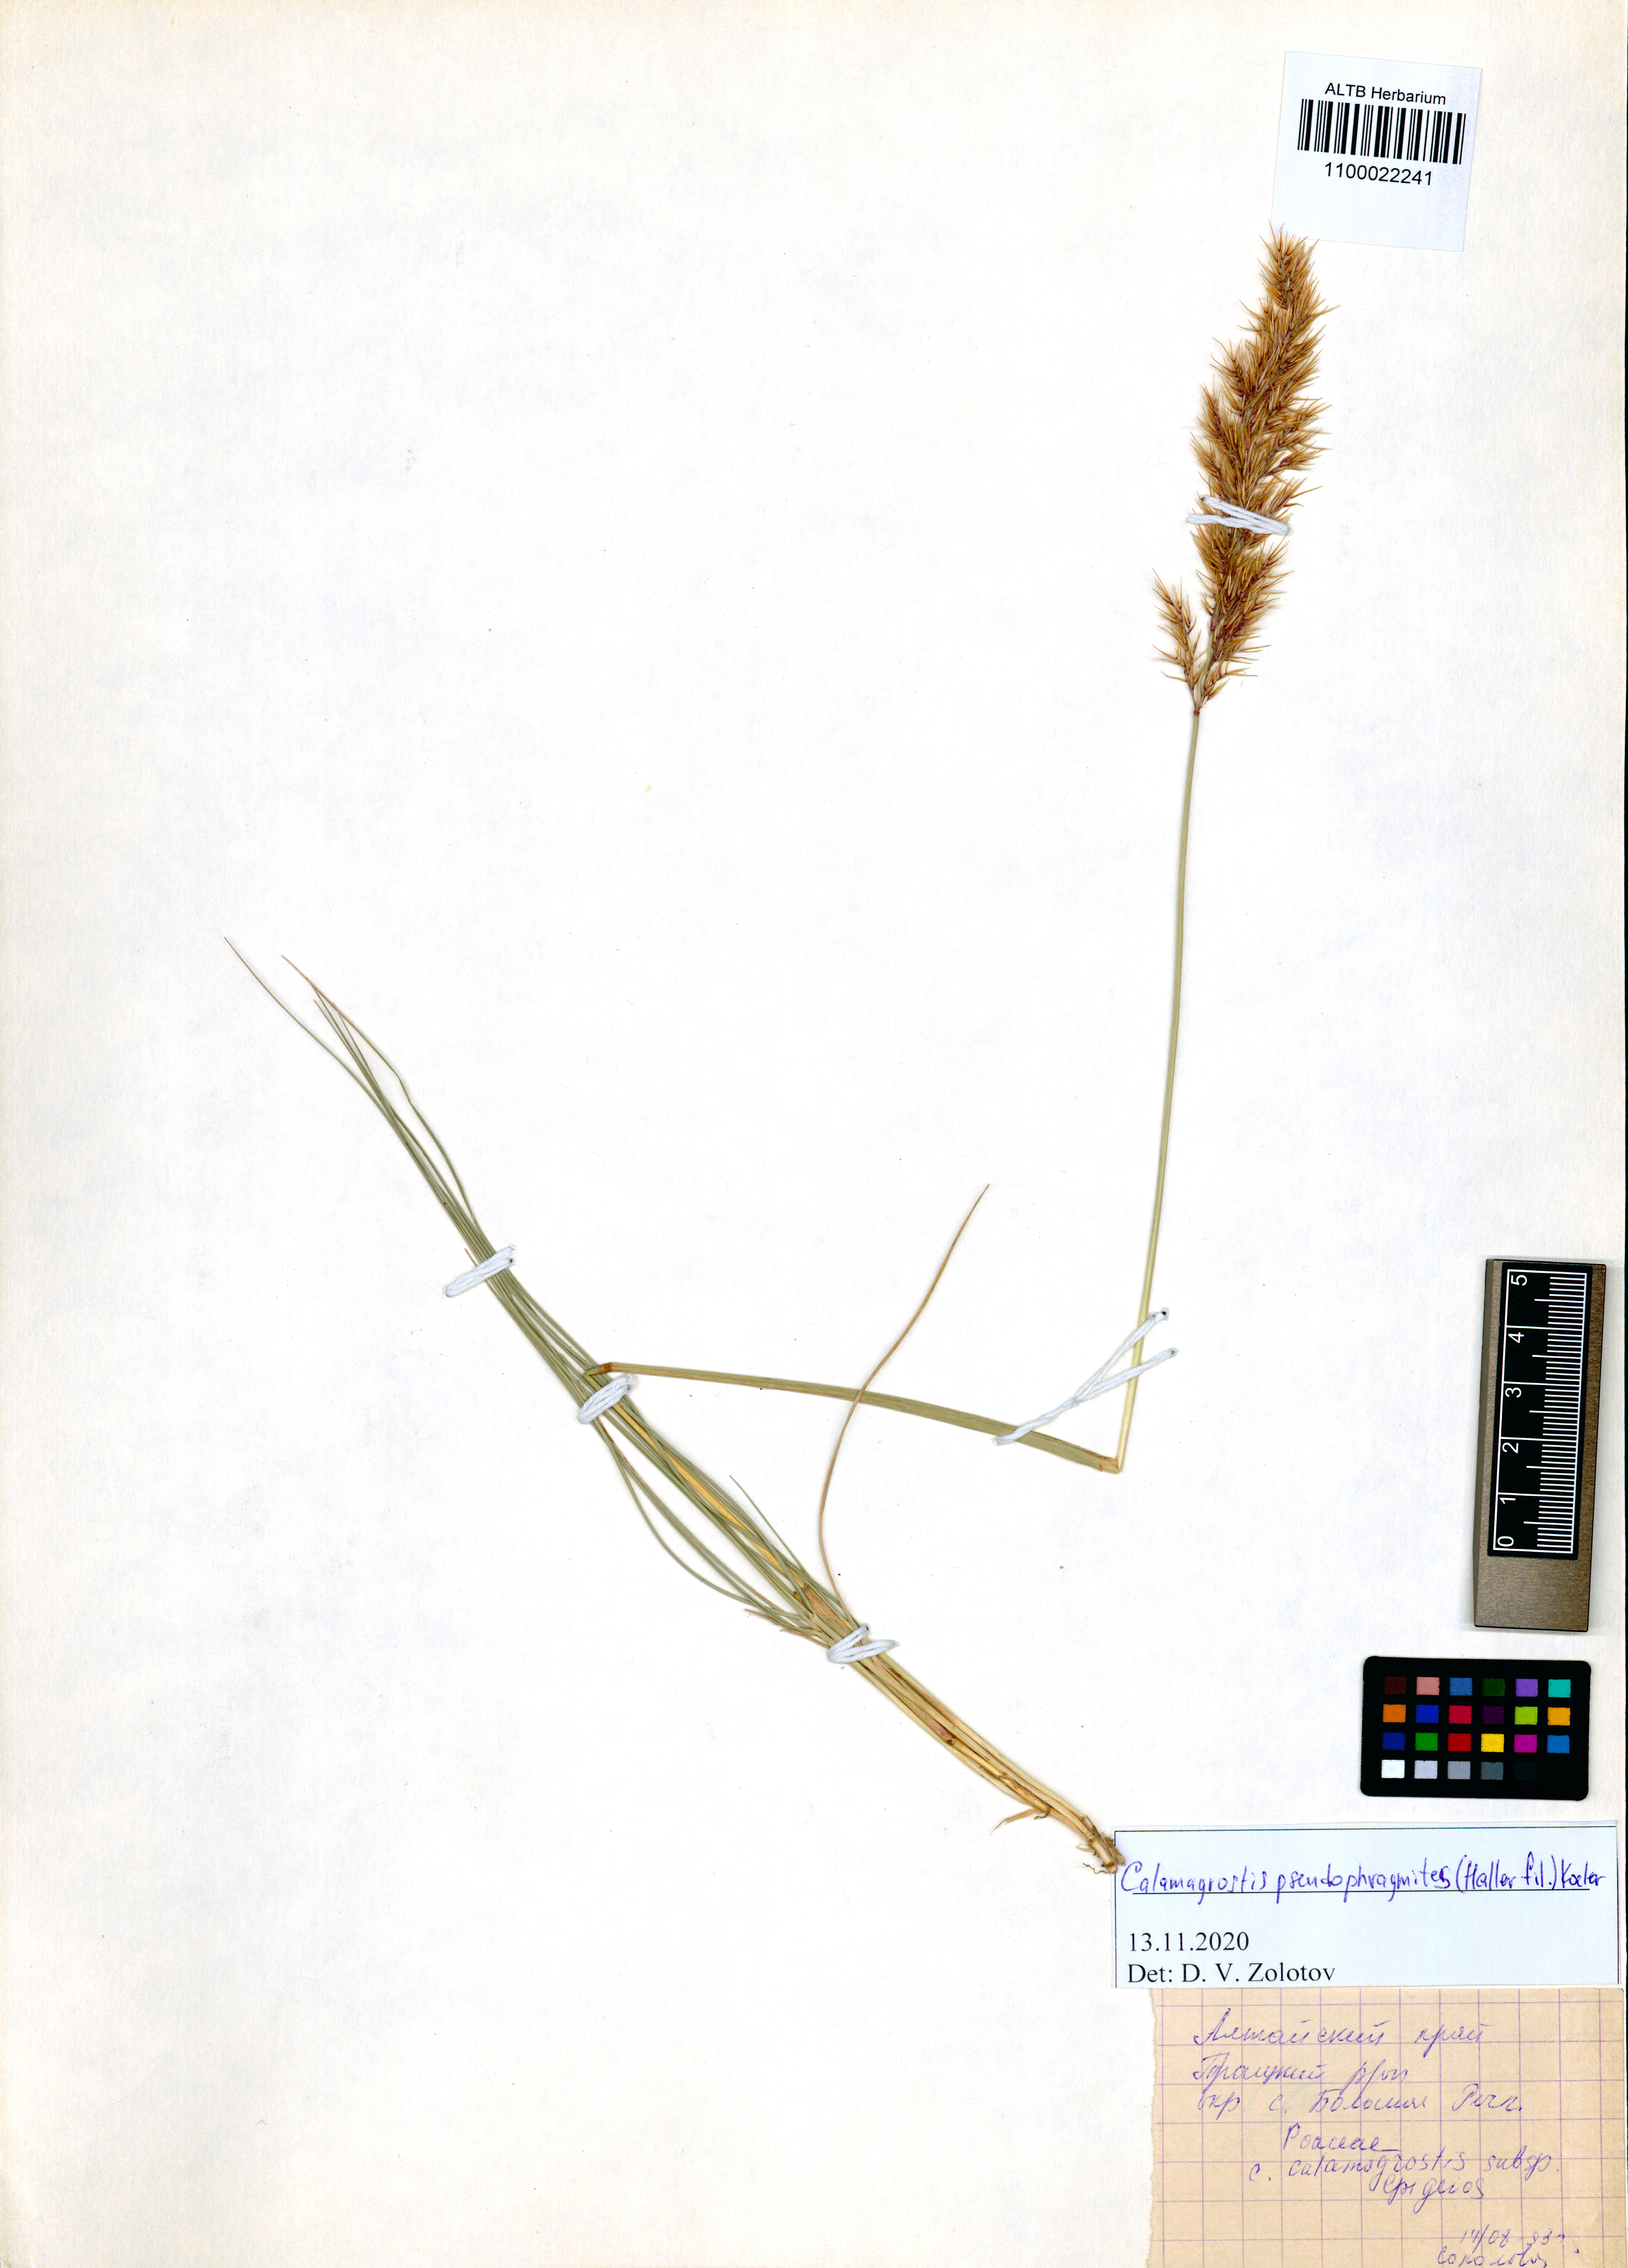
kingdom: Plantae
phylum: Tracheophyta
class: Liliopsida
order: Poales
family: Poaceae
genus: Calamagrostis
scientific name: Calamagrostis pseudophragmites
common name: Coastal small-reed
